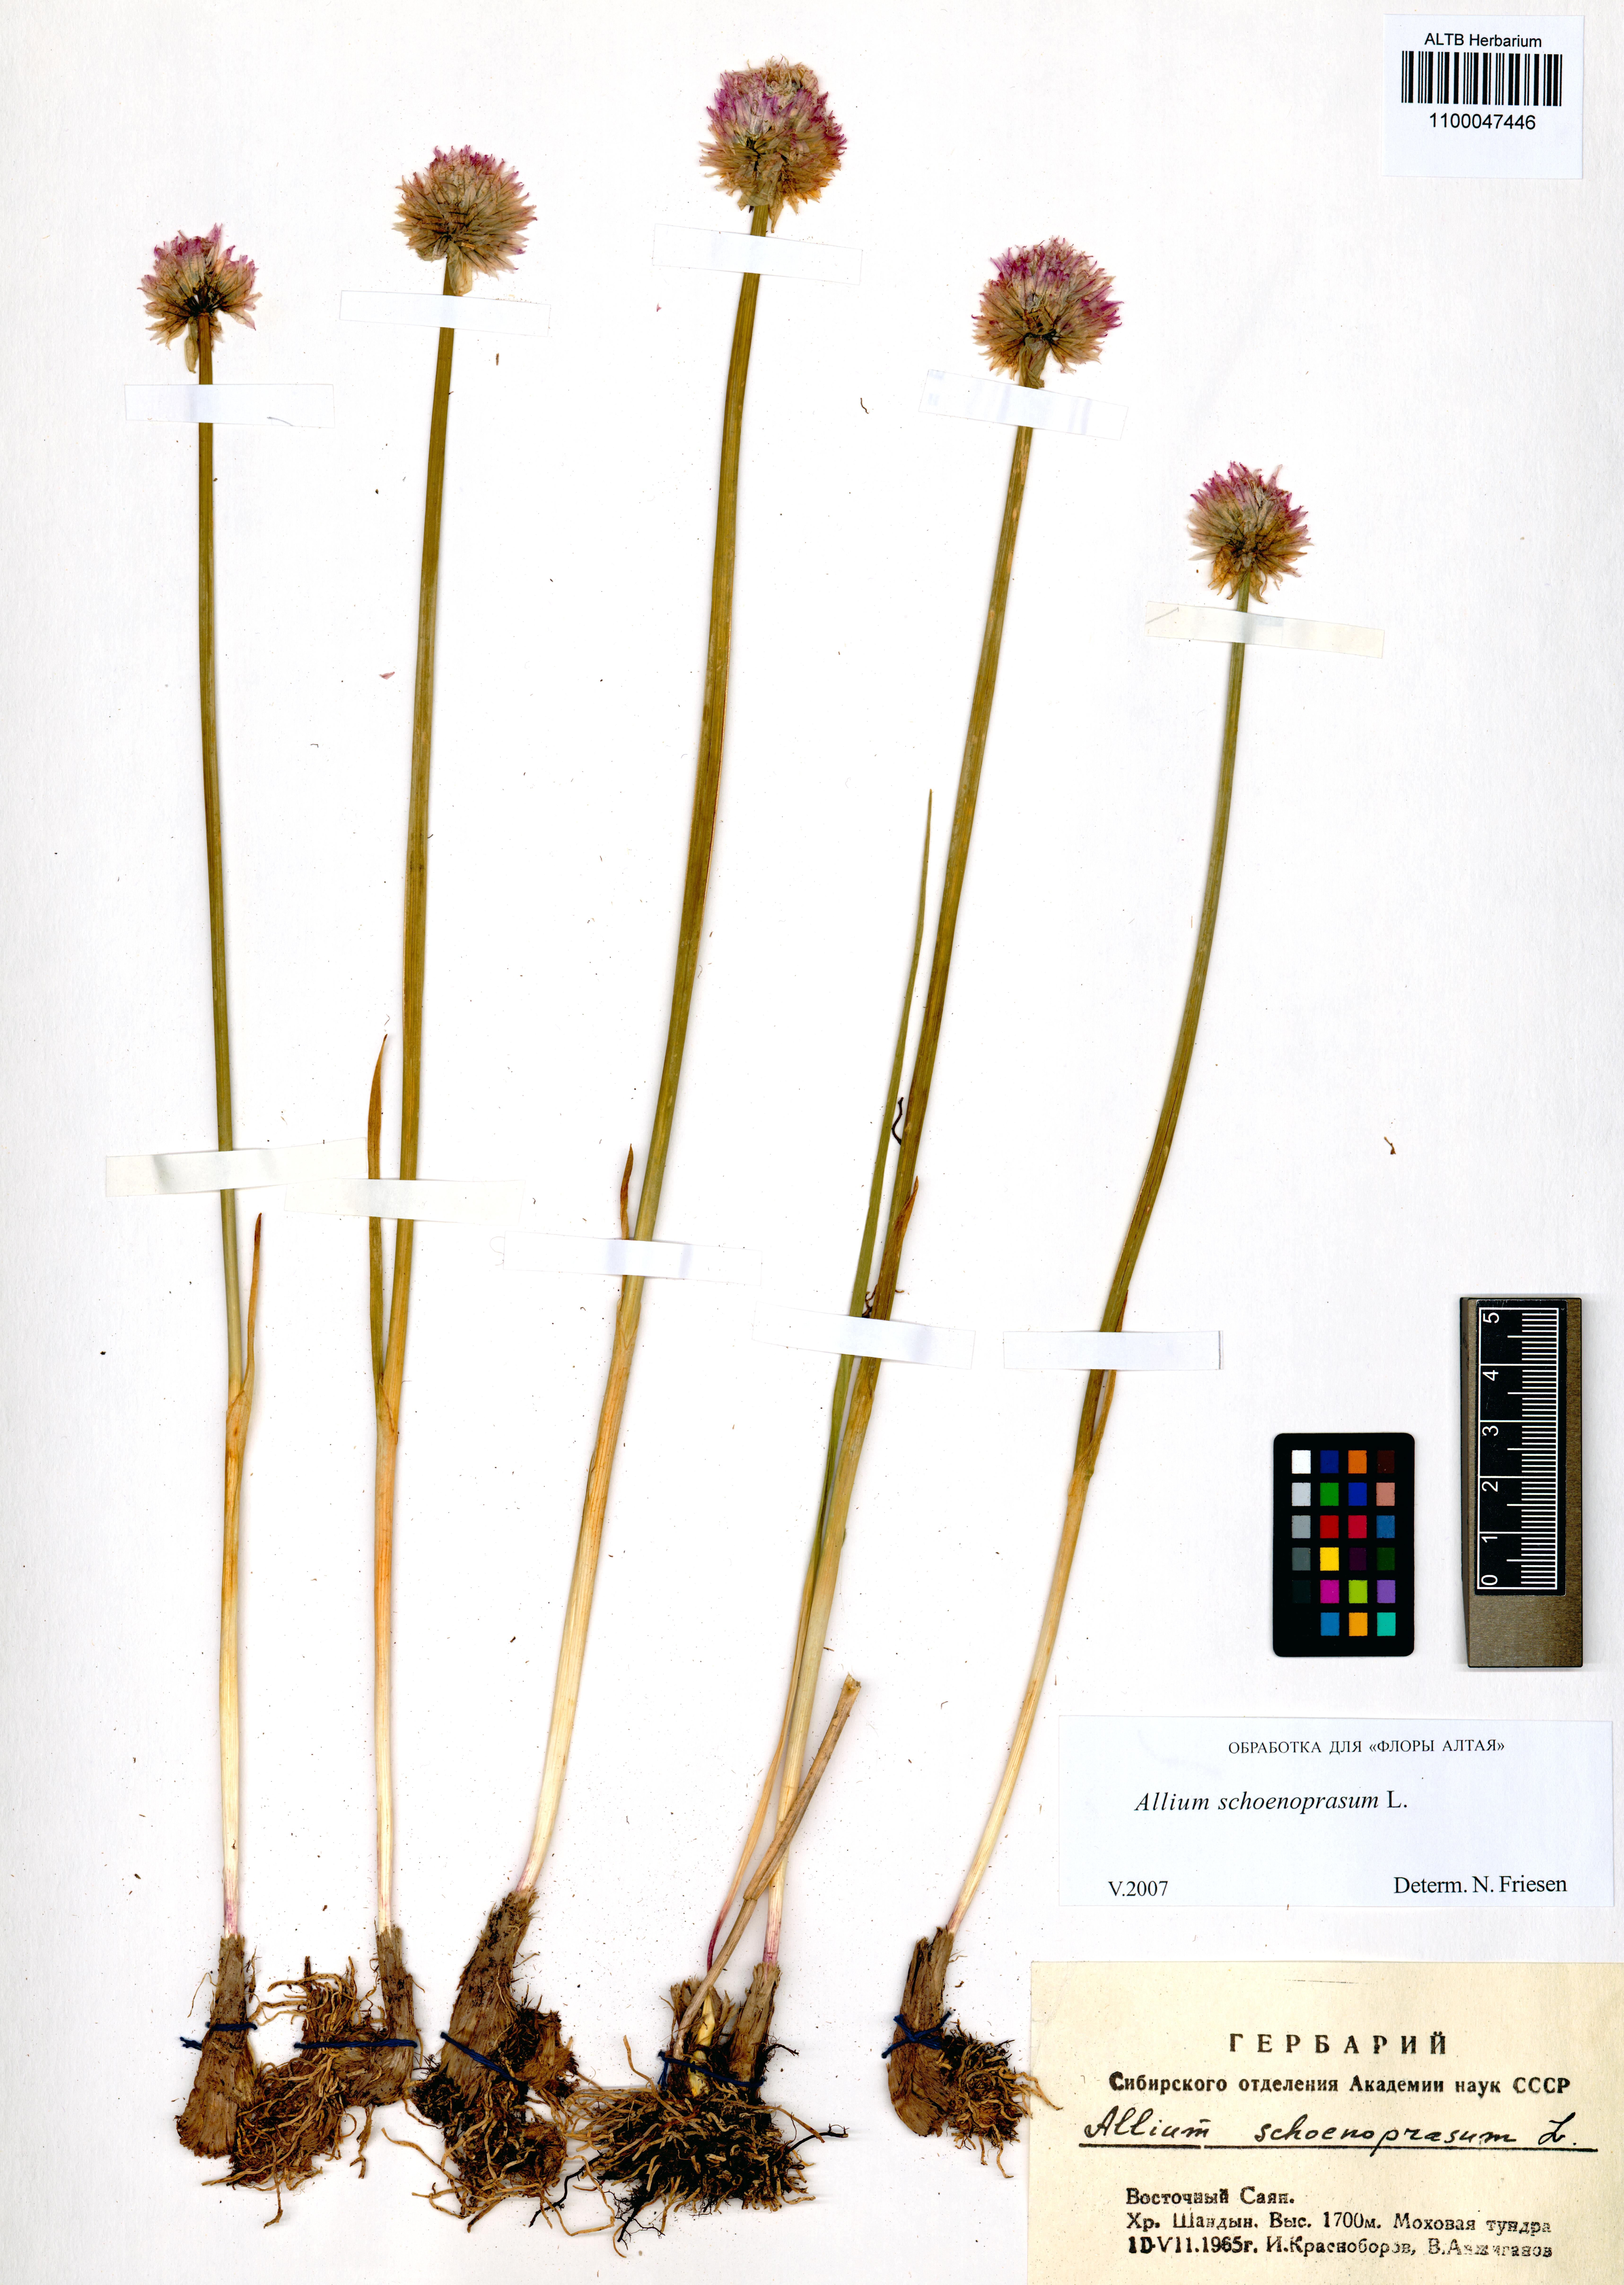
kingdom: Plantae
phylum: Tracheophyta
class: Liliopsida
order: Asparagales
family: Amaryllidaceae
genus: Allium
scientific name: Allium schoenoprasum
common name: Chives
